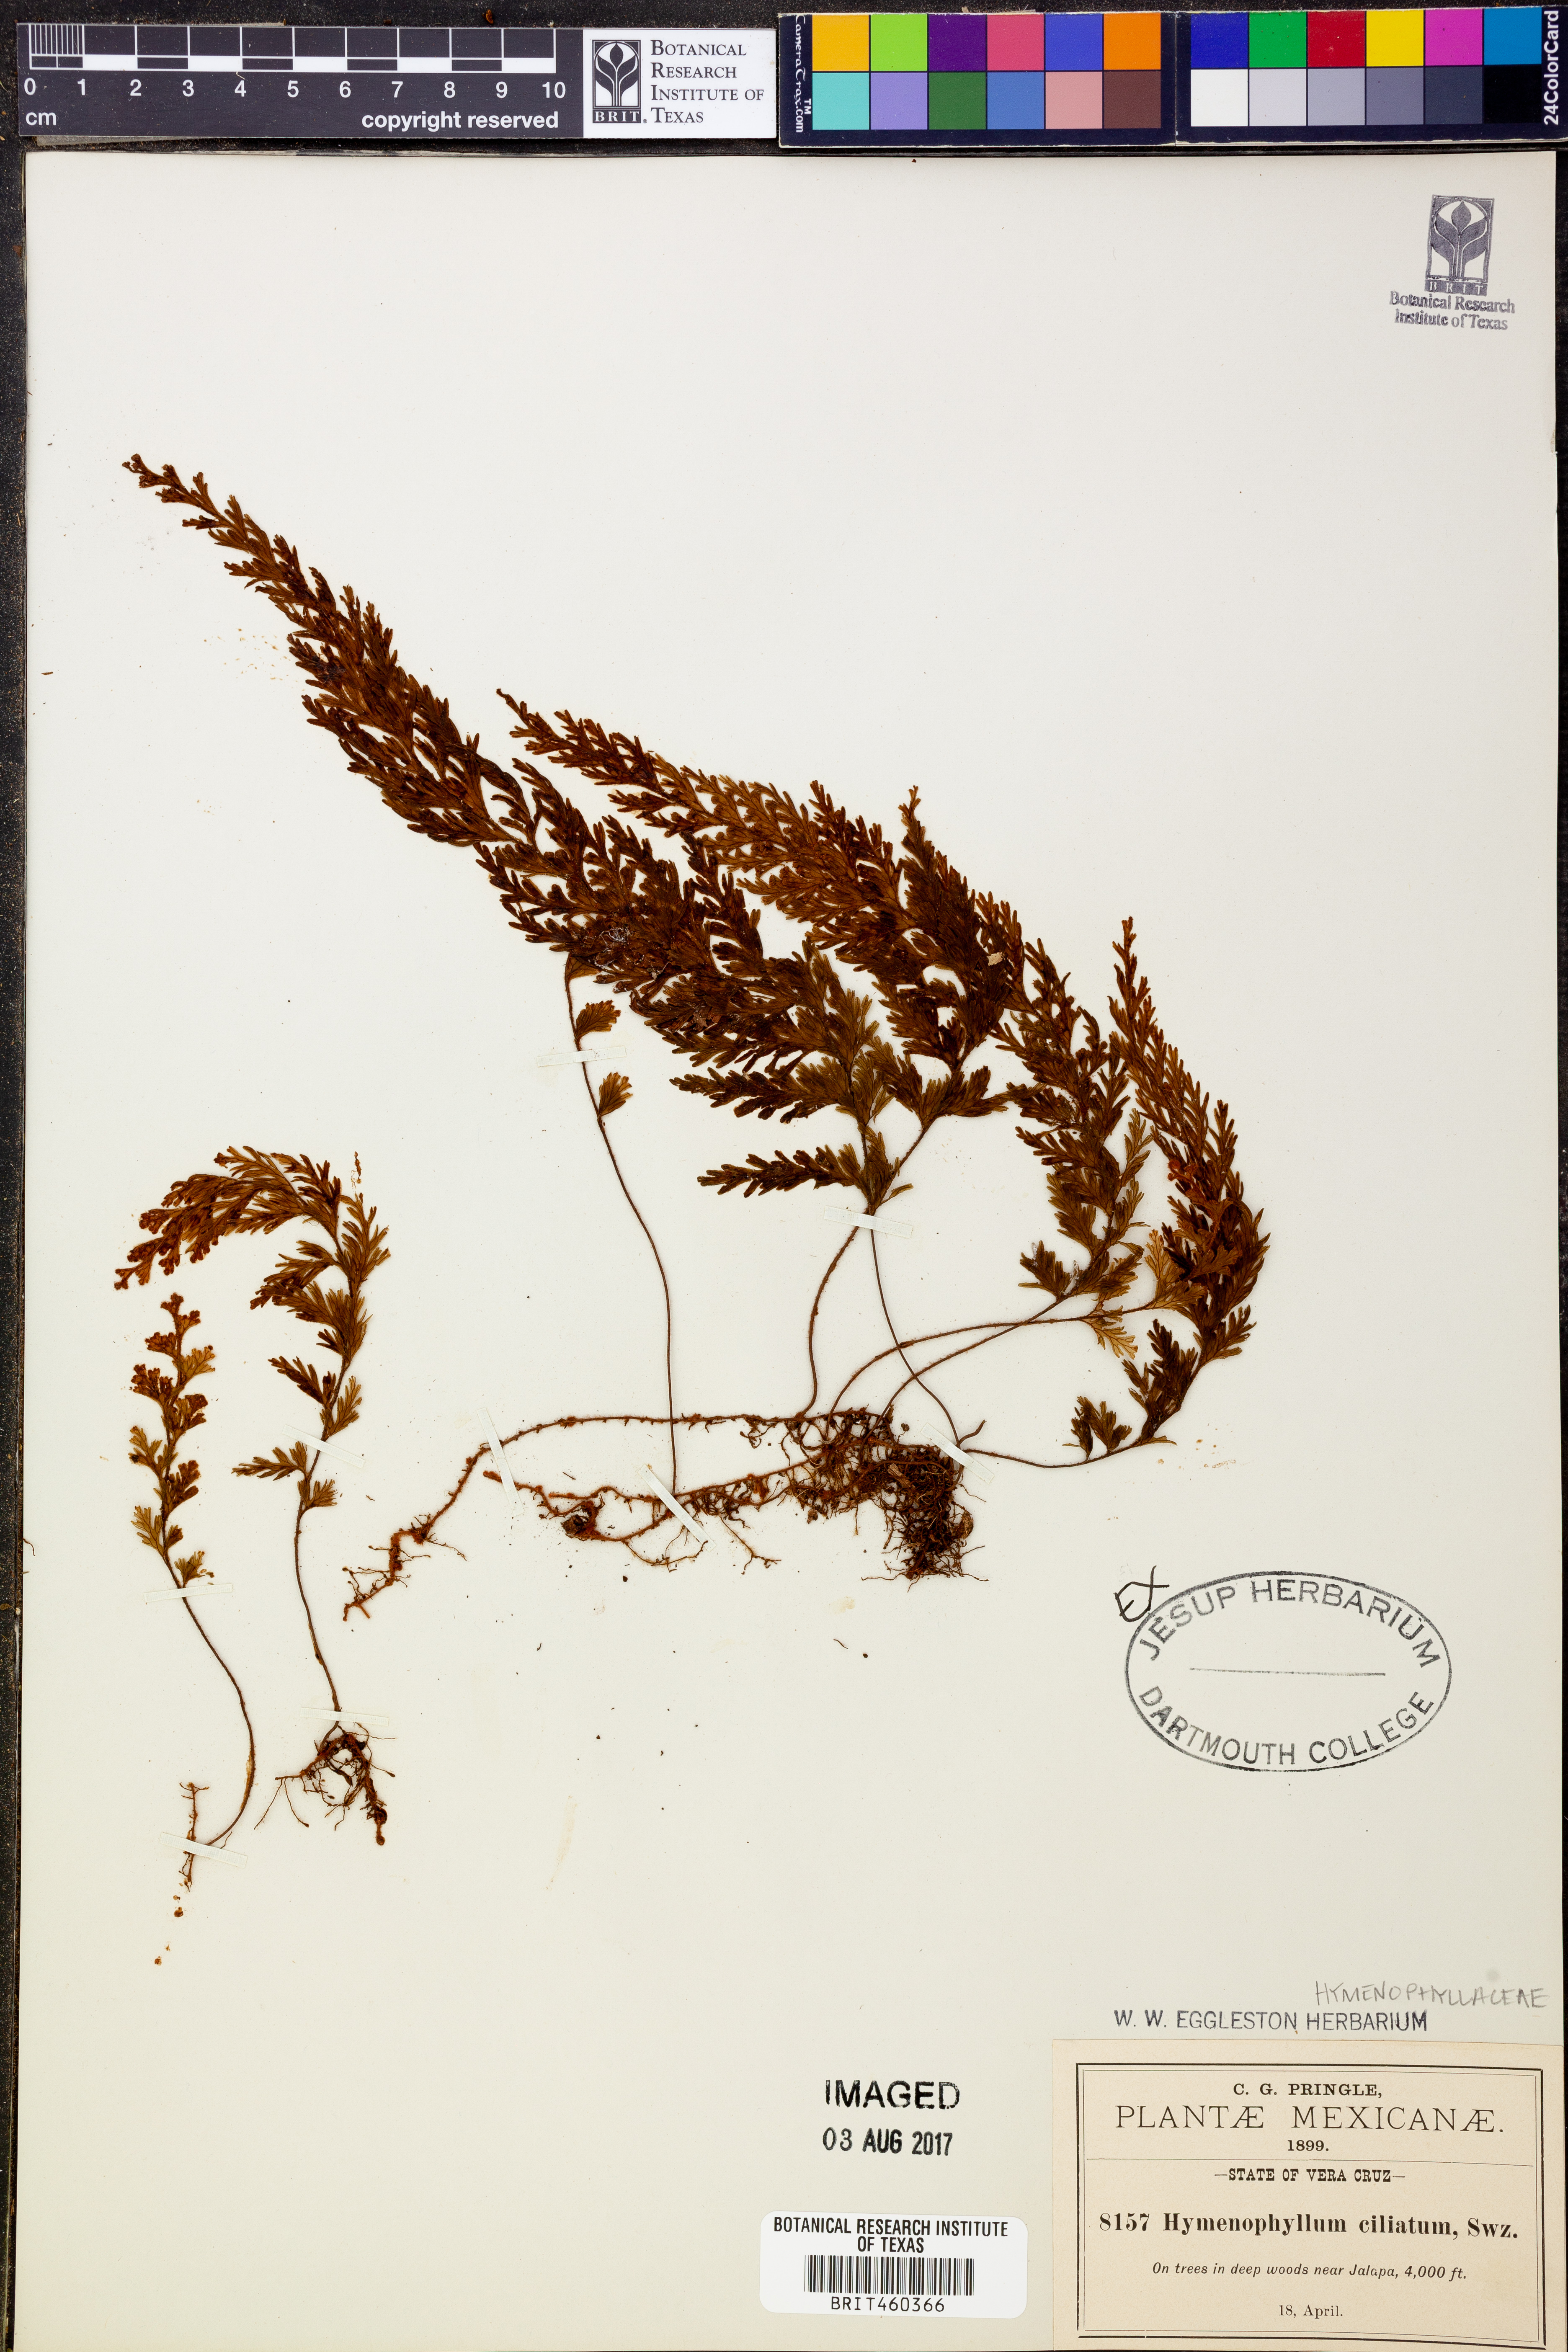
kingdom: Plantae
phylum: Tracheophyta
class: Polypodiopsida
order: Hymenophyllales
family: Hymenophyllaceae
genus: Hymenophyllum
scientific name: Hymenophyllum hirsutum
